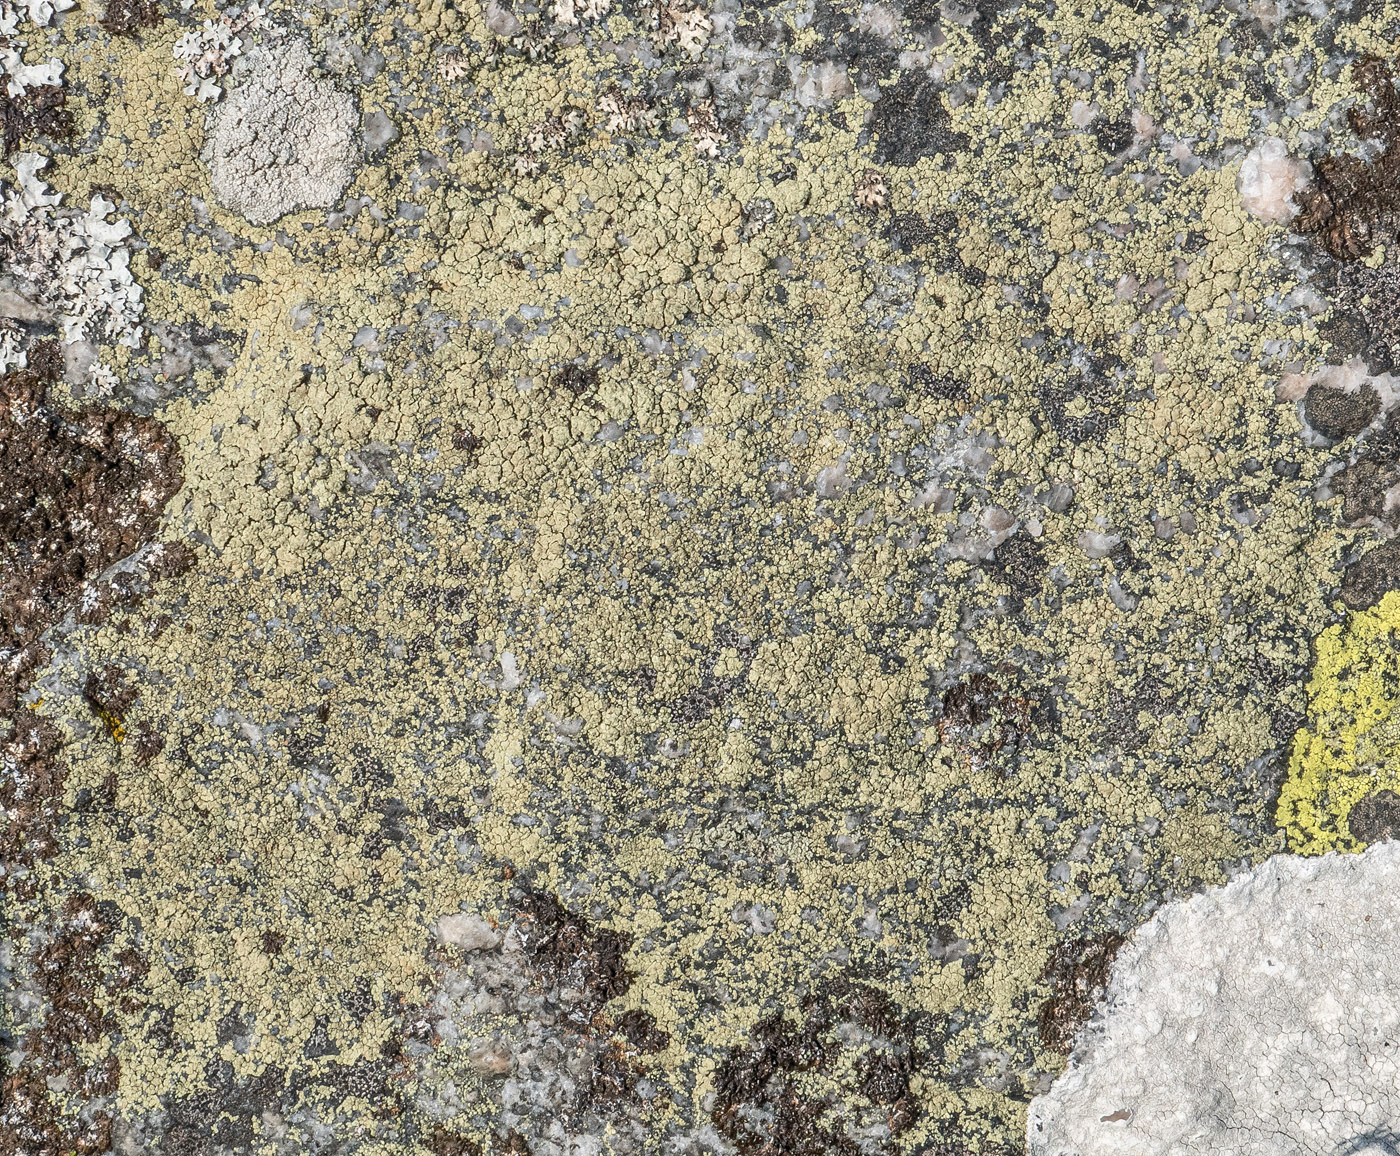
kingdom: Fungi
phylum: Ascomycota
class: Lecanoromycetes
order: Lecanorales
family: Lecanoraceae
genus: Lecanora
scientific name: Lecanora polytropa
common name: bleggrøn kantskivelav
